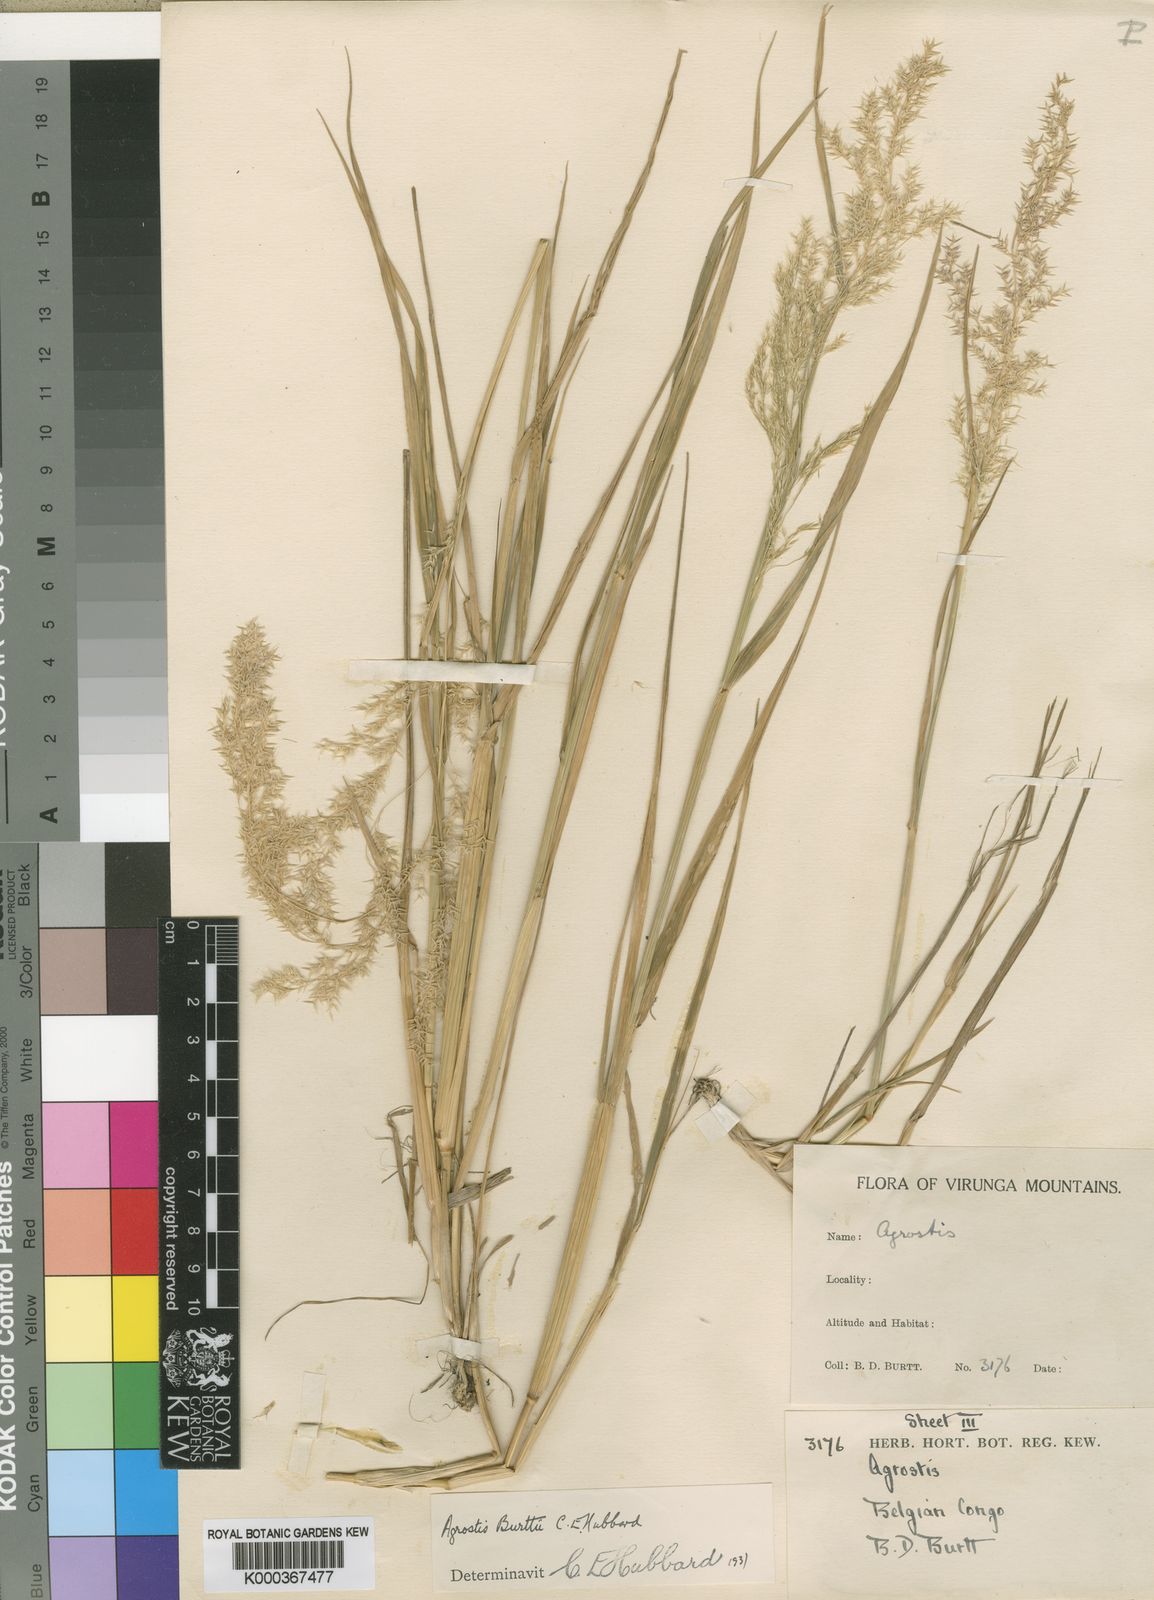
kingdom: Plantae
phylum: Tracheophyta
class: Liliopsida
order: Poales
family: Poaceae
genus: Agrostis
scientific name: Agrostis kilimandscharica
